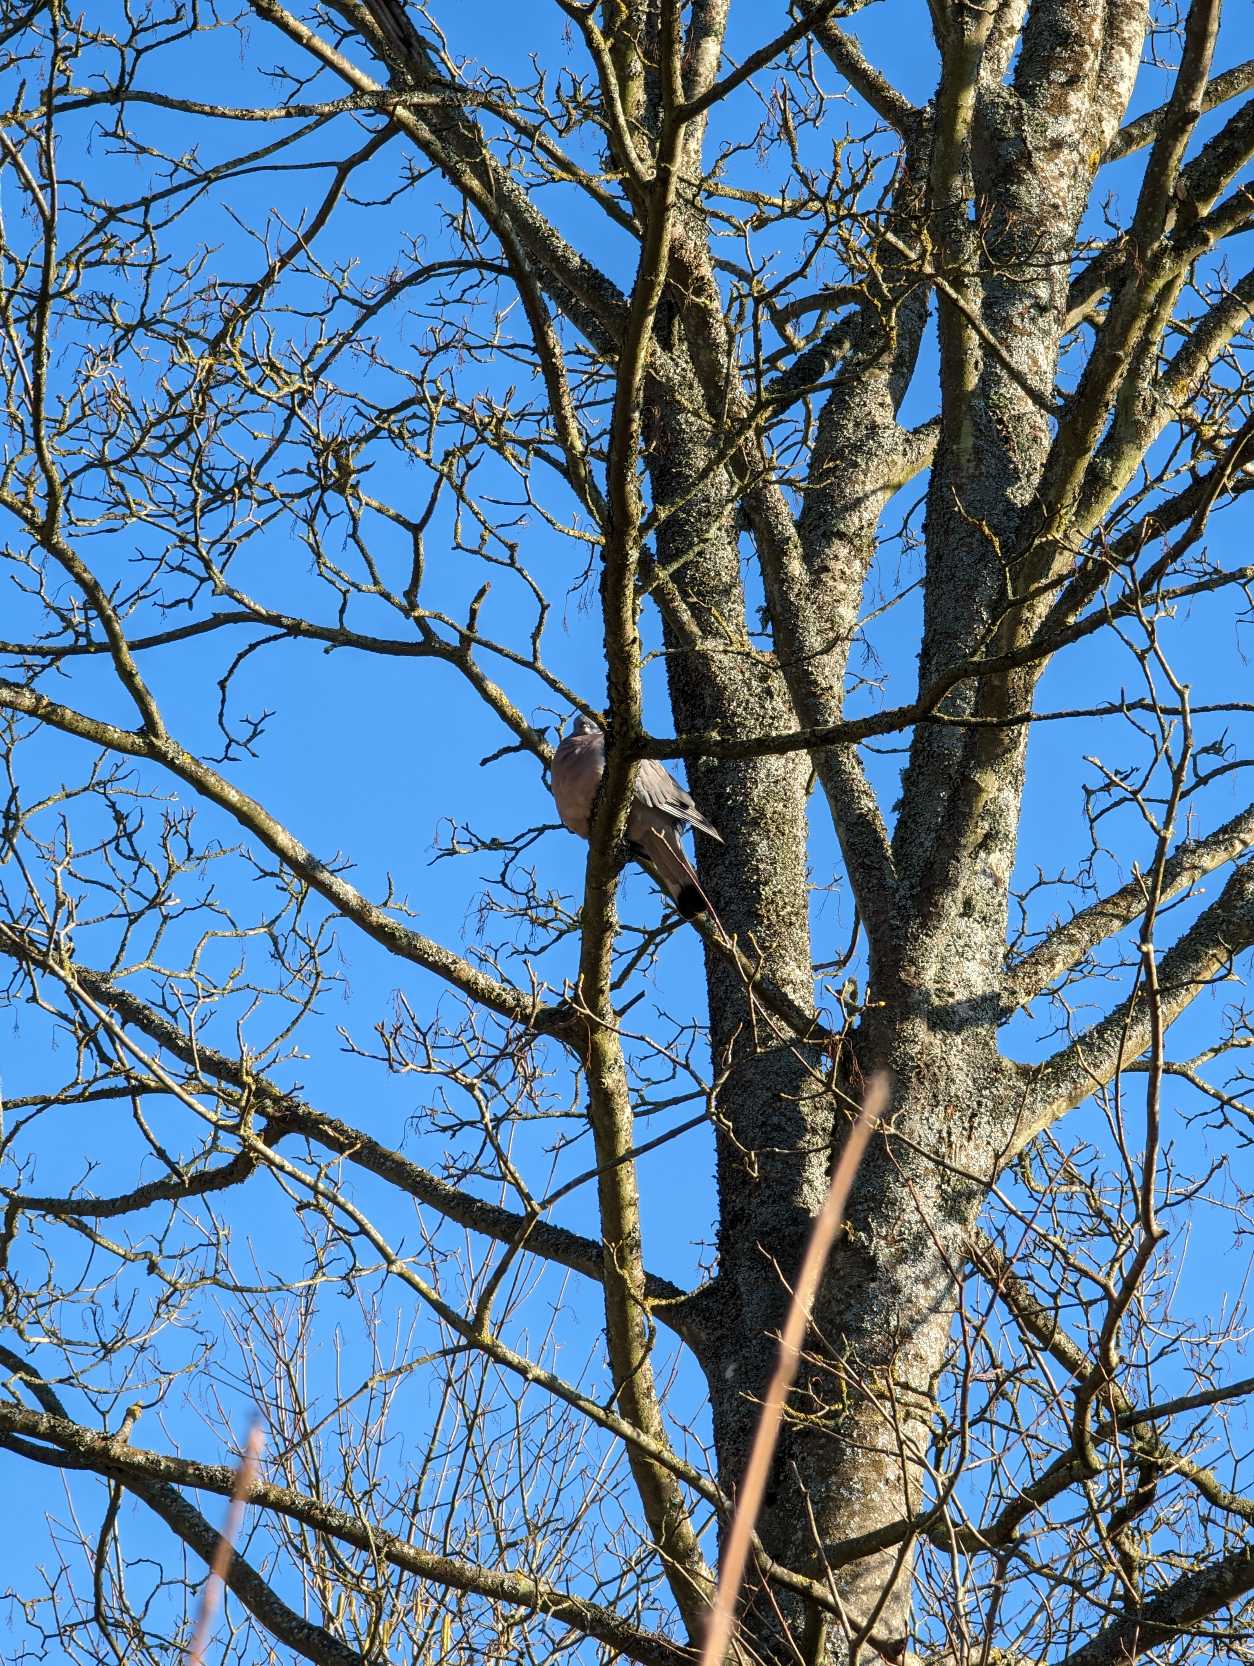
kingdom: Animalia
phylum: Chordata
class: Aves
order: Columbiformes
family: Columbidae
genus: Columba
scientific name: Columba palumbus
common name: Ringdue
